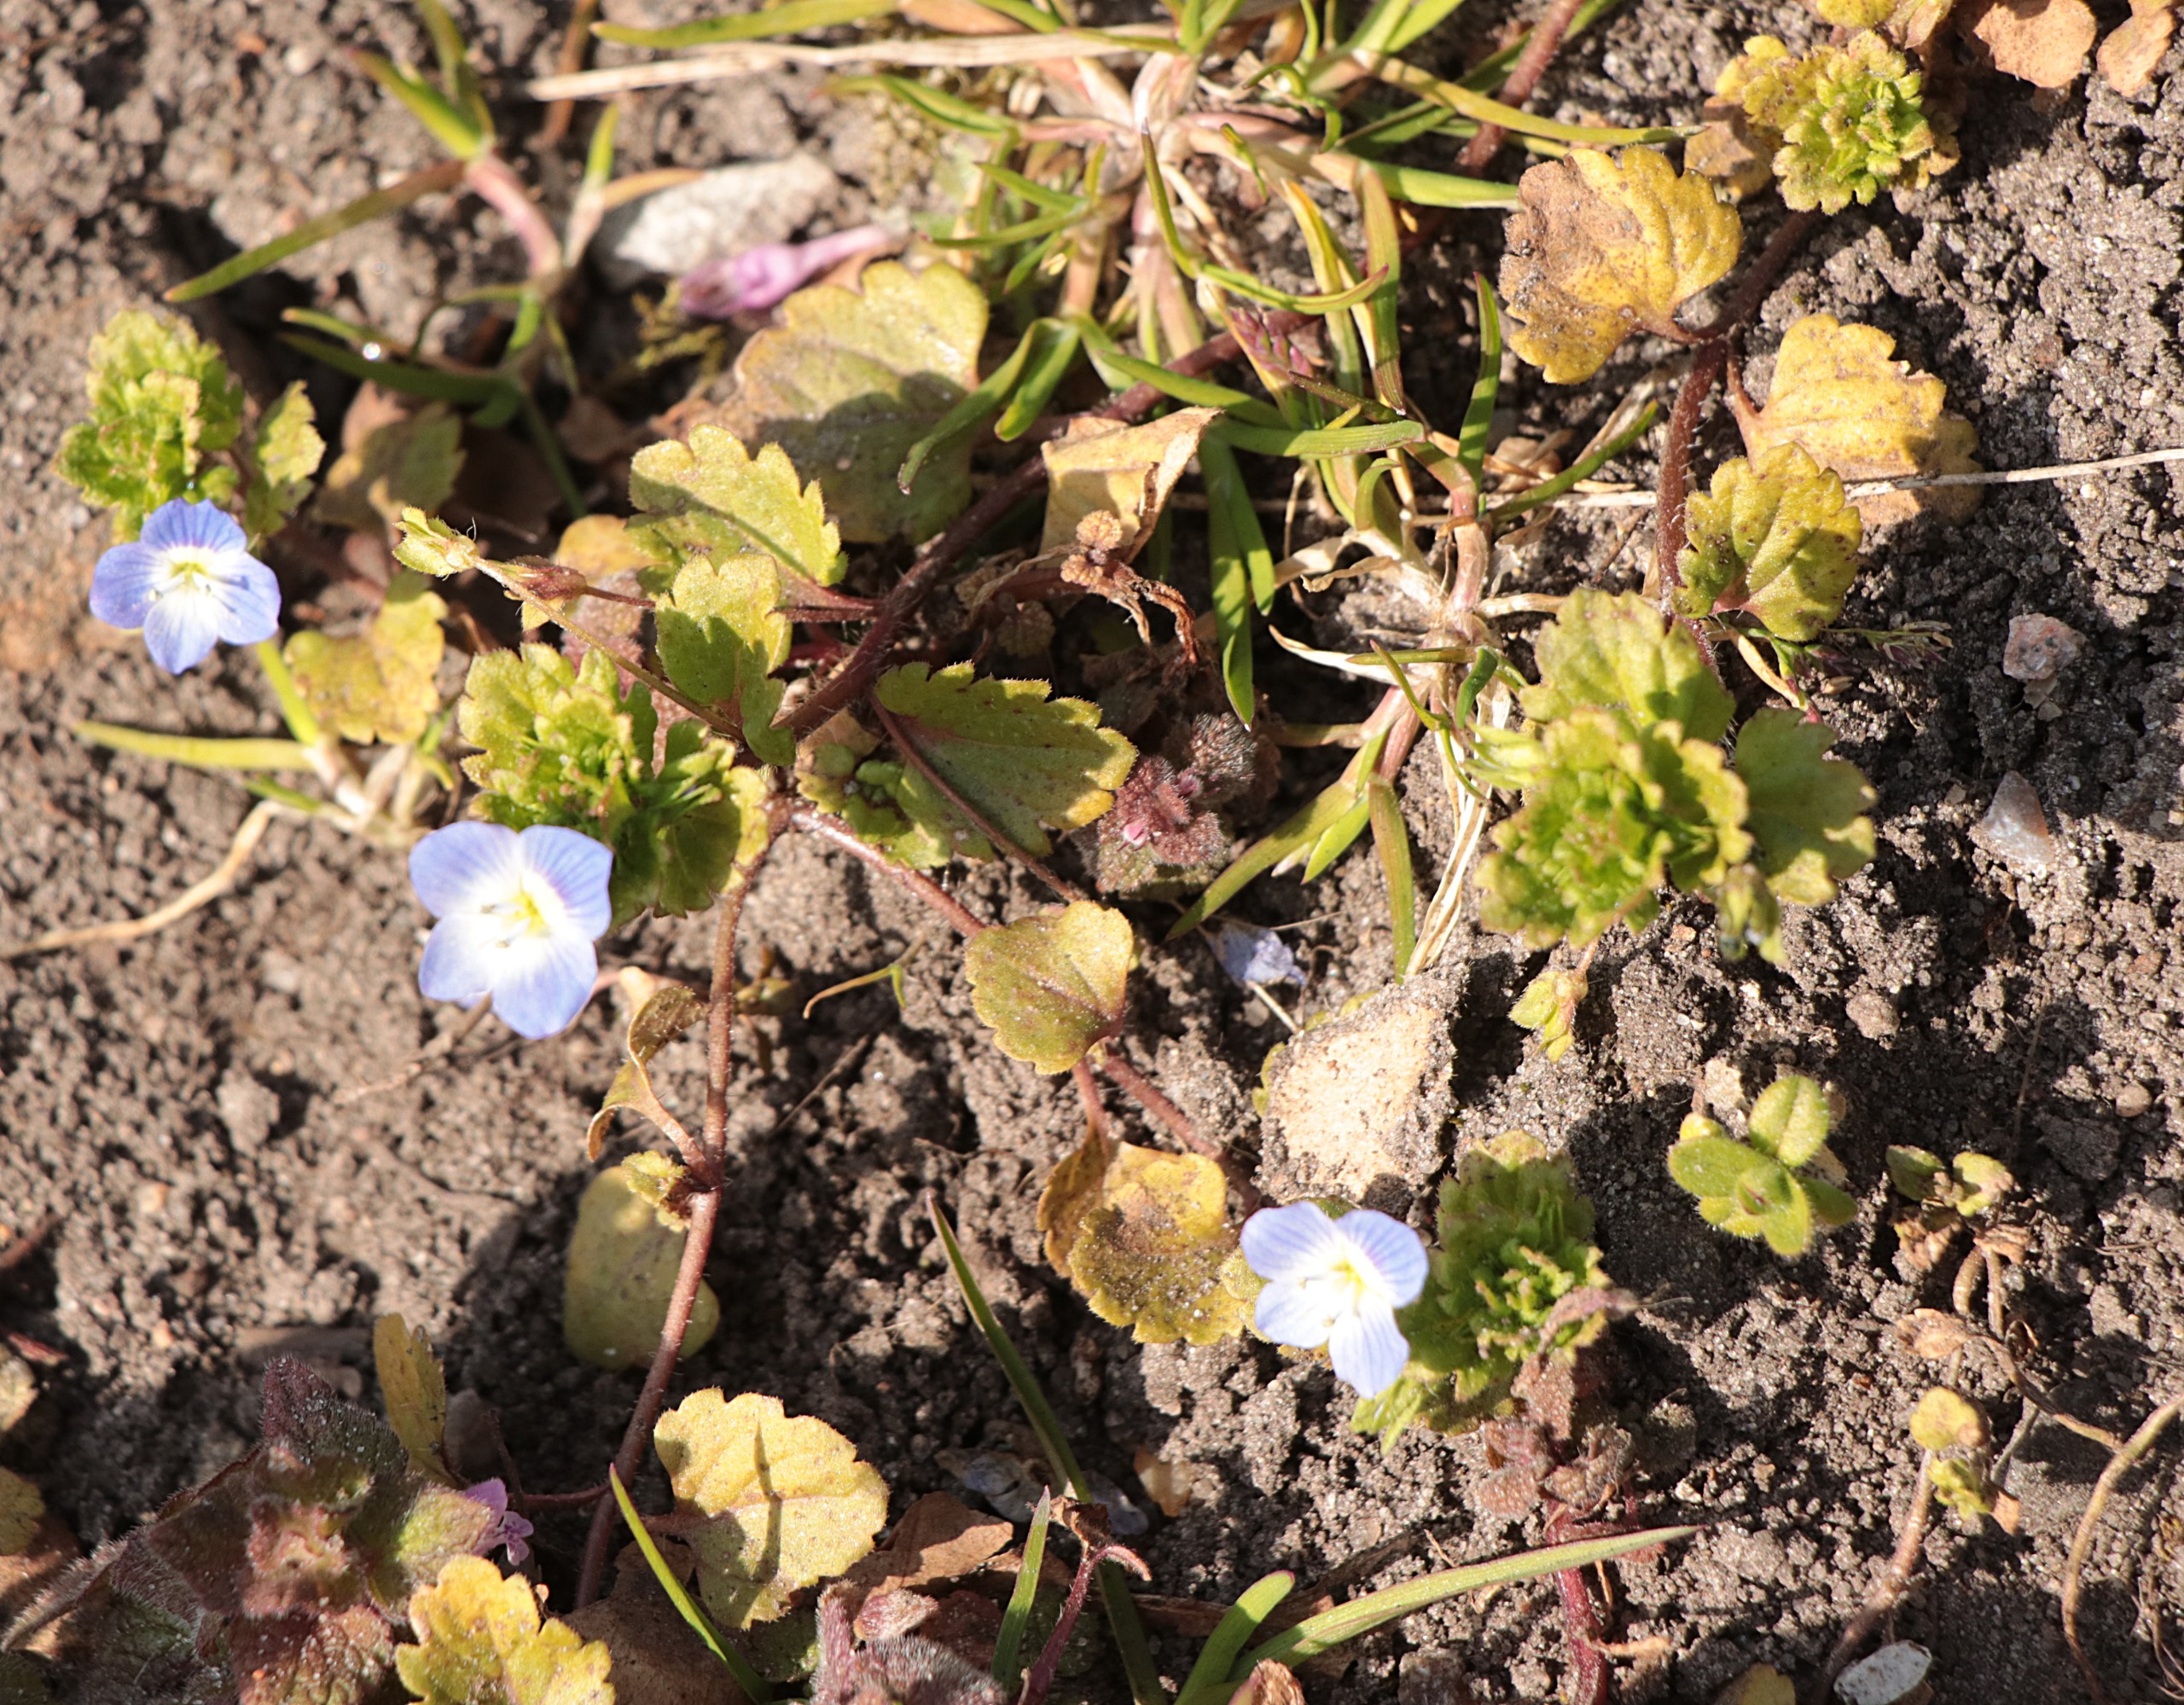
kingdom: Plantae
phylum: Tracheophyta
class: Magnoliopsida
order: Lamiales
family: Plantaginaceae
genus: Veronica
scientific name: Veronica persica
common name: Storkronet ærenpris
